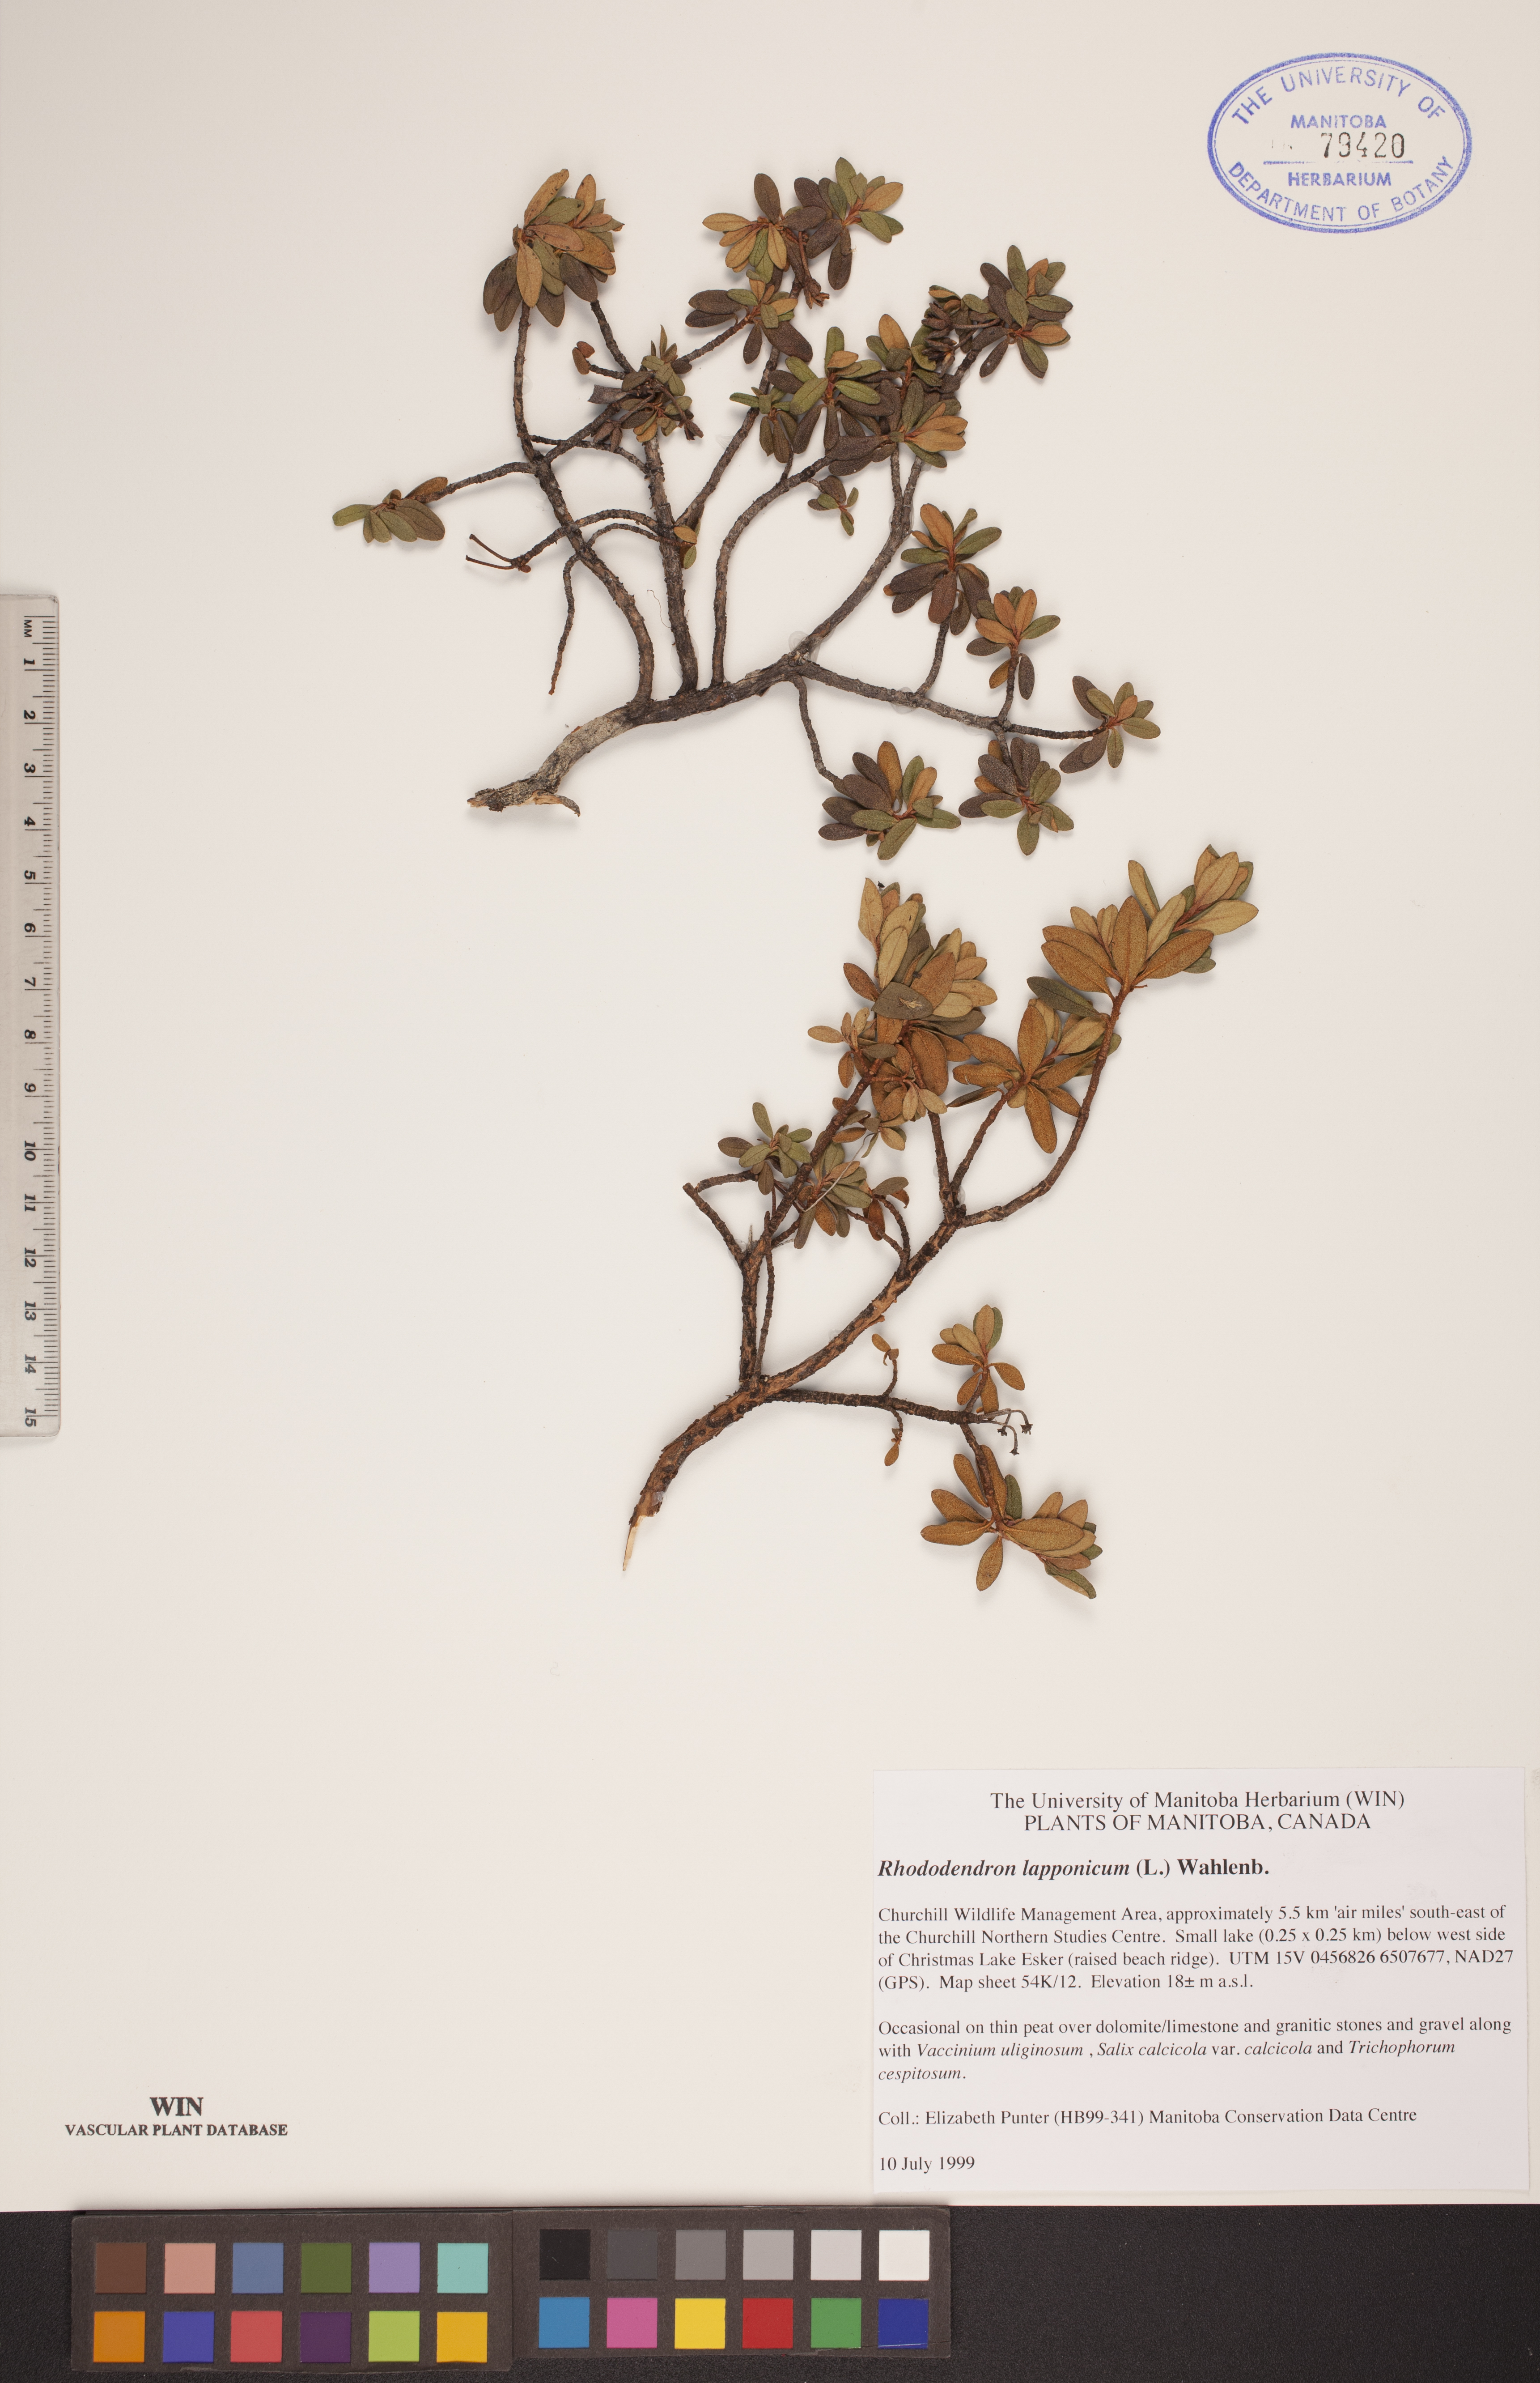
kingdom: Plantae
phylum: Tracheophyta
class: Magnoliopsida
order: Ericales
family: Ericaceae
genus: Rhododendron
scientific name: Rhododendron lapponicum
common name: Lapland rhododendron
